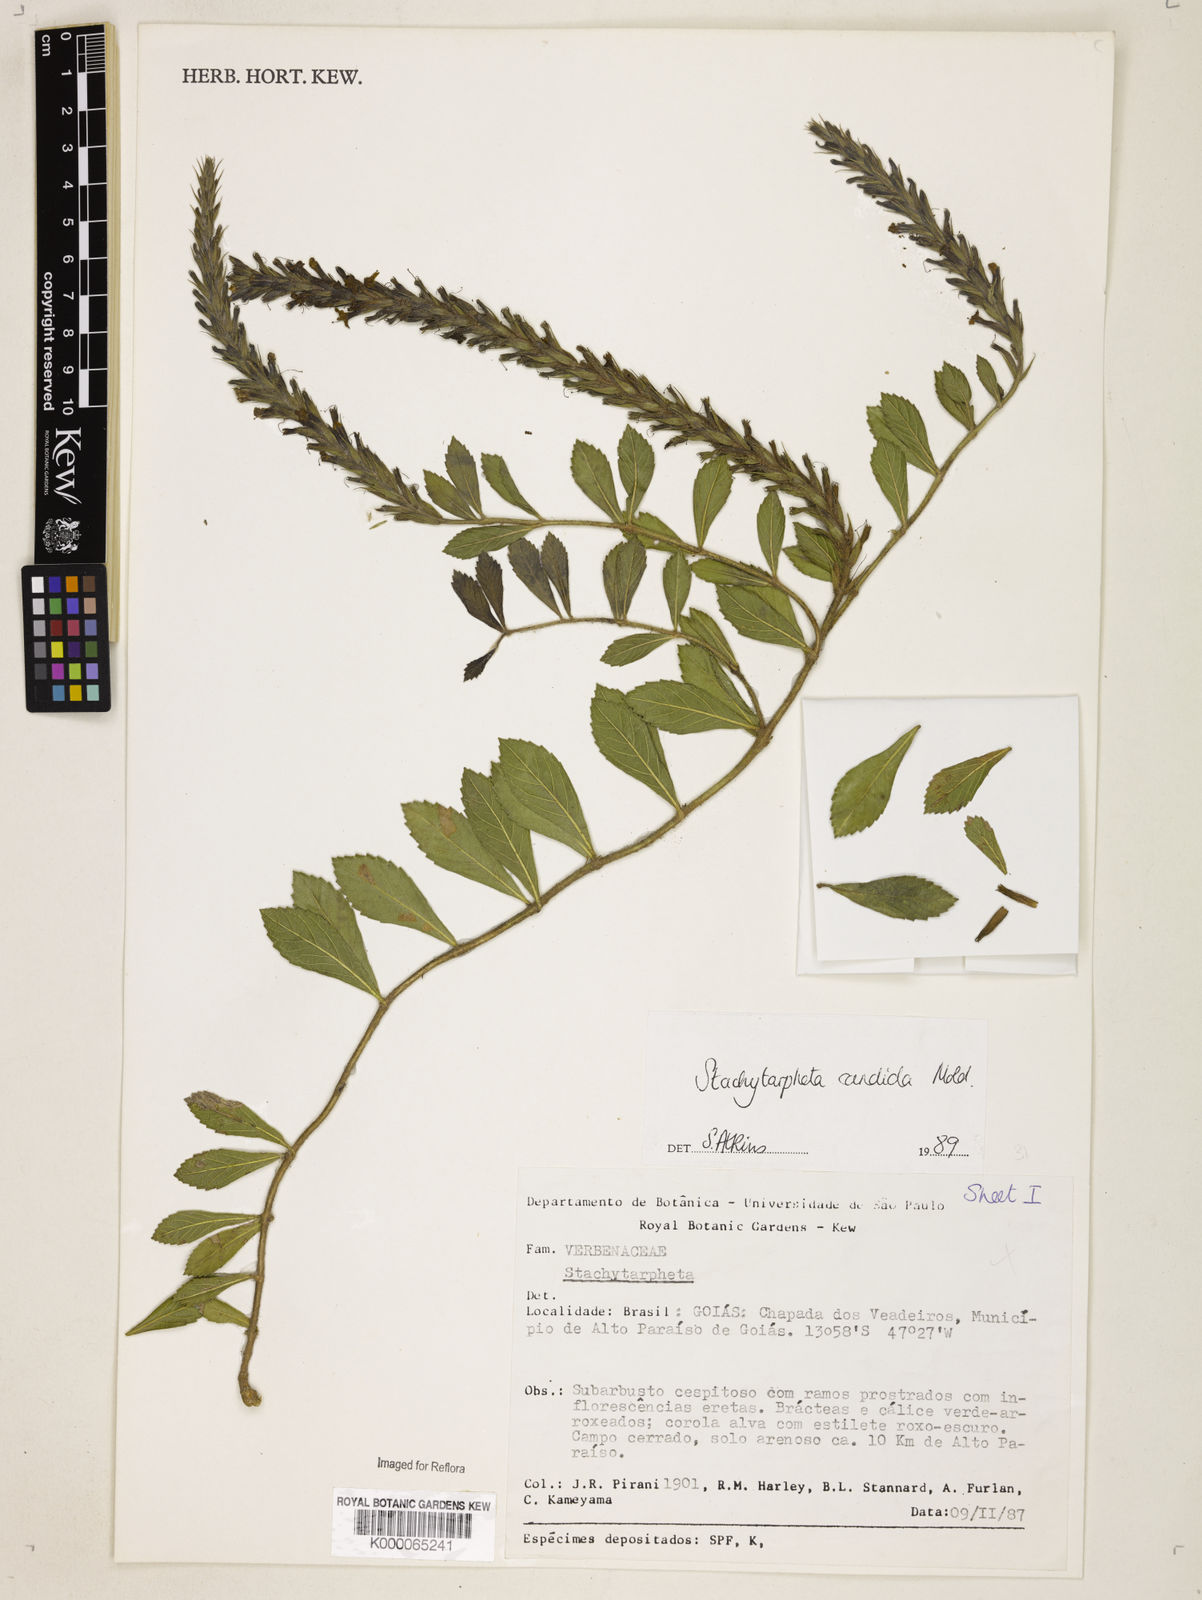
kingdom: Plantae
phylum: Tracheophyta
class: Magnoliopsida
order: Lamiales
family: Verbenaceae
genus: Stachytarpheta
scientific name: Stachytarpheta crassifolia
